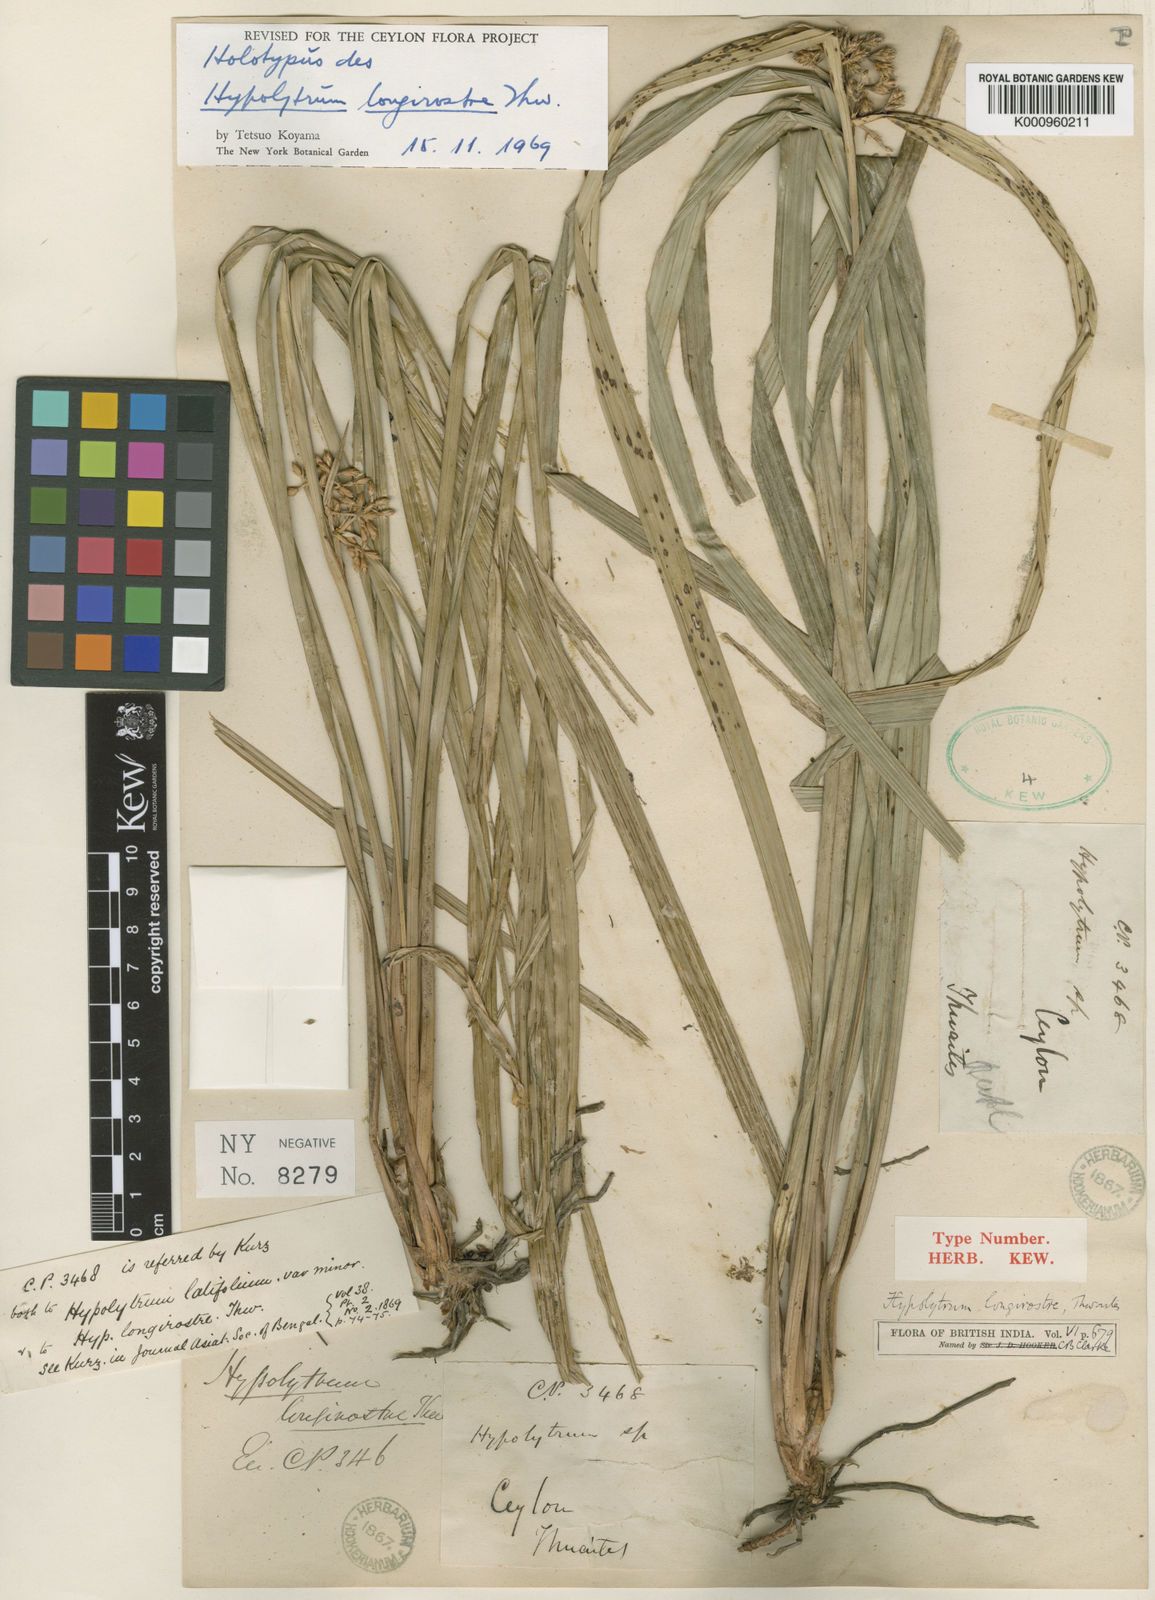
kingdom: Plantae
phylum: Tracheophyta
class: Liliopsida
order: Poales
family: Cyperaceae
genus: Hypolytrum
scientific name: Hypolytrum longirostre
